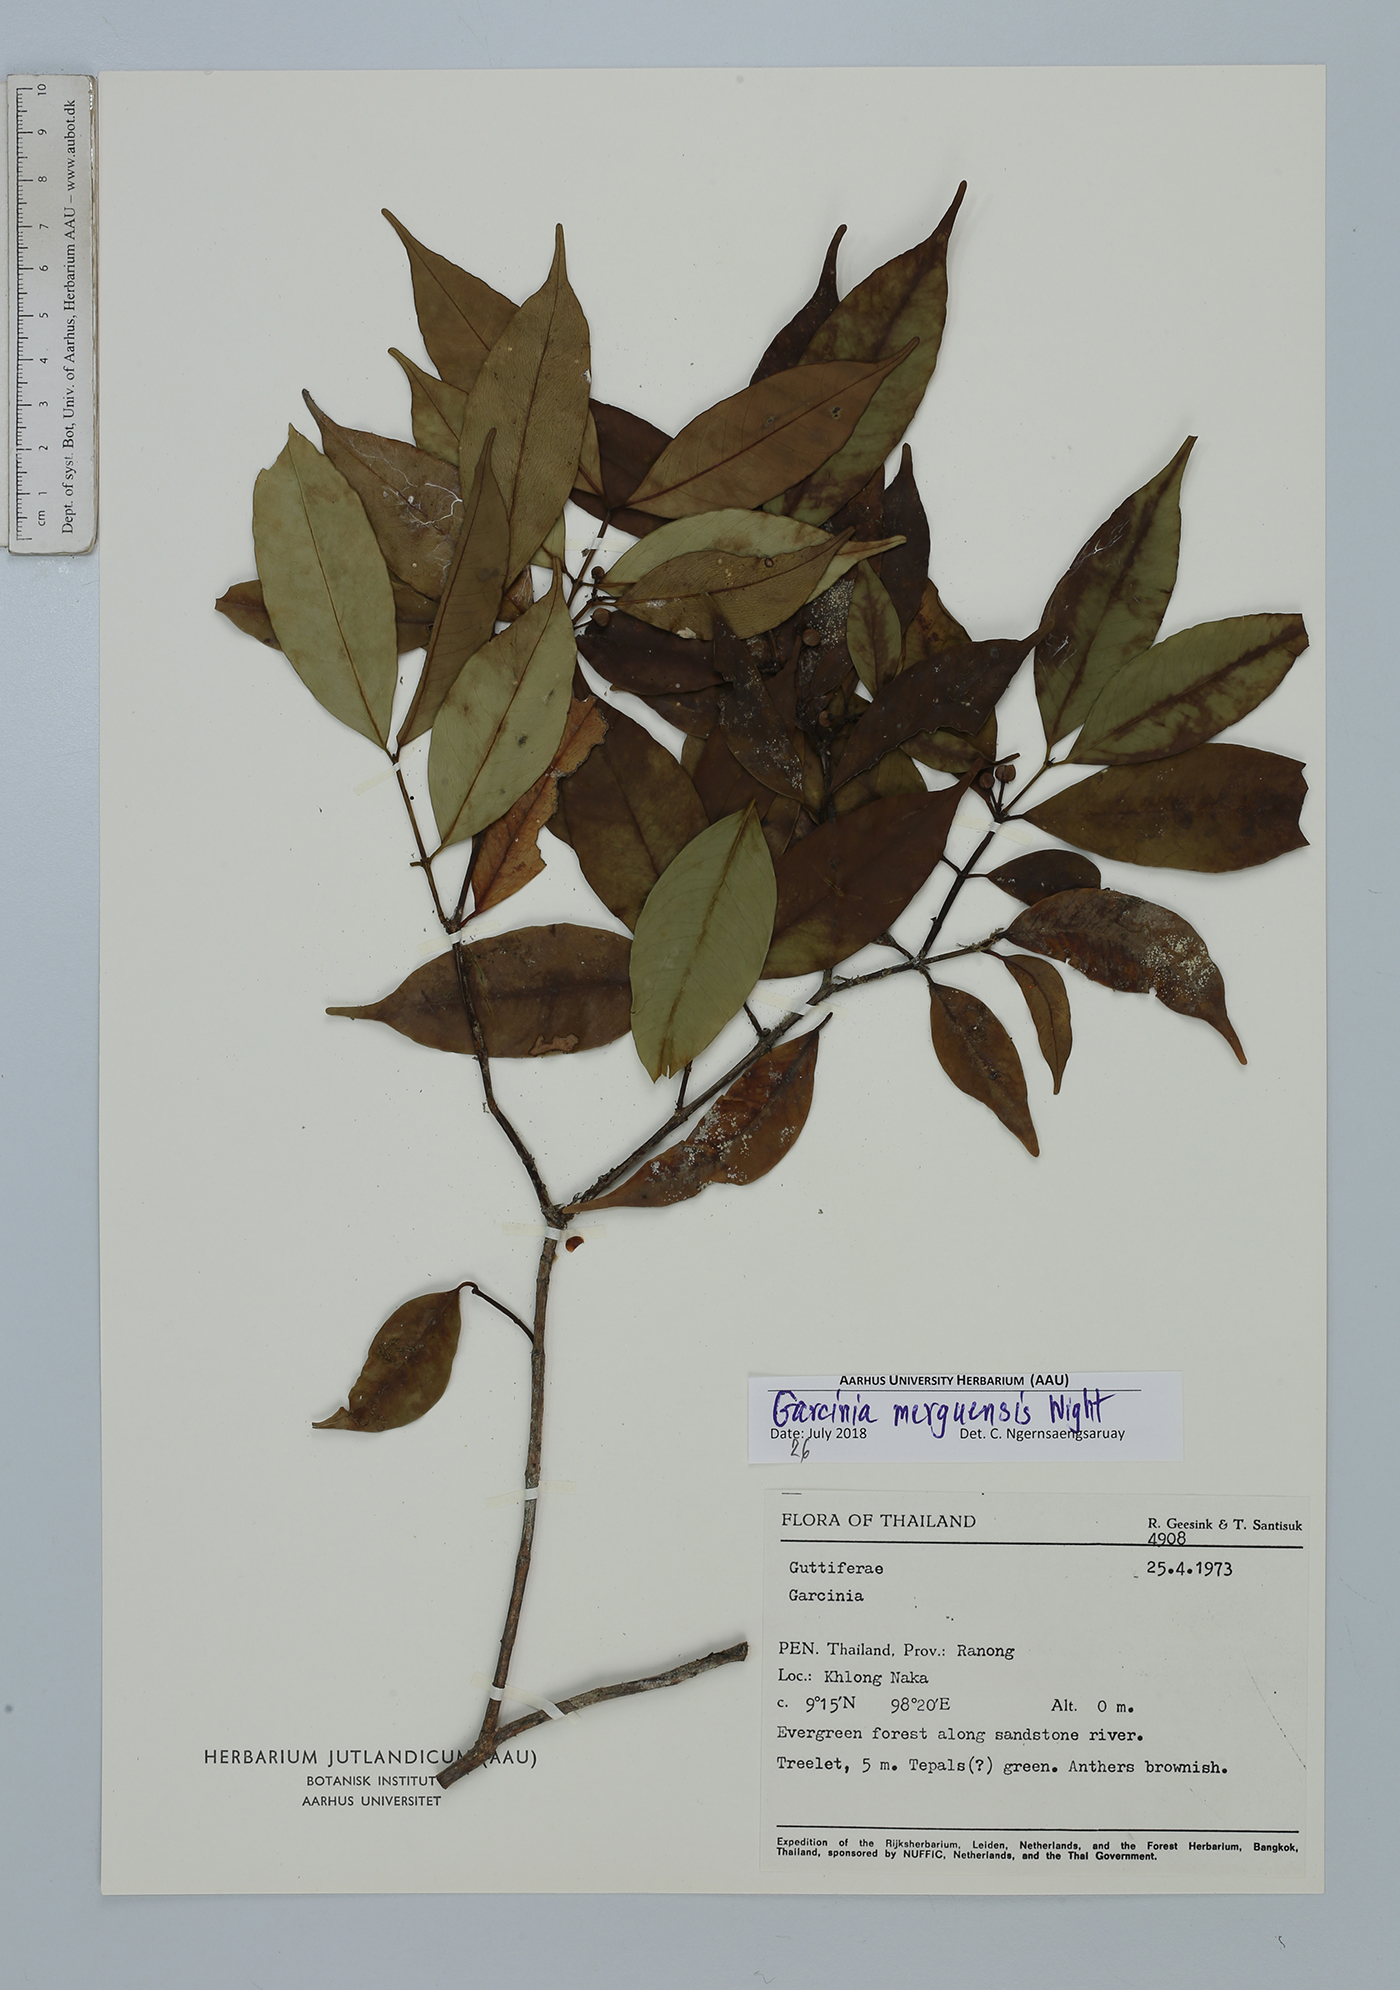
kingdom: Plantae
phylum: Tracheophyta
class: Magnoliopsida
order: Malpighiales
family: Clusiaceae
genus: Garcinia
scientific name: Garcinia merguensis
